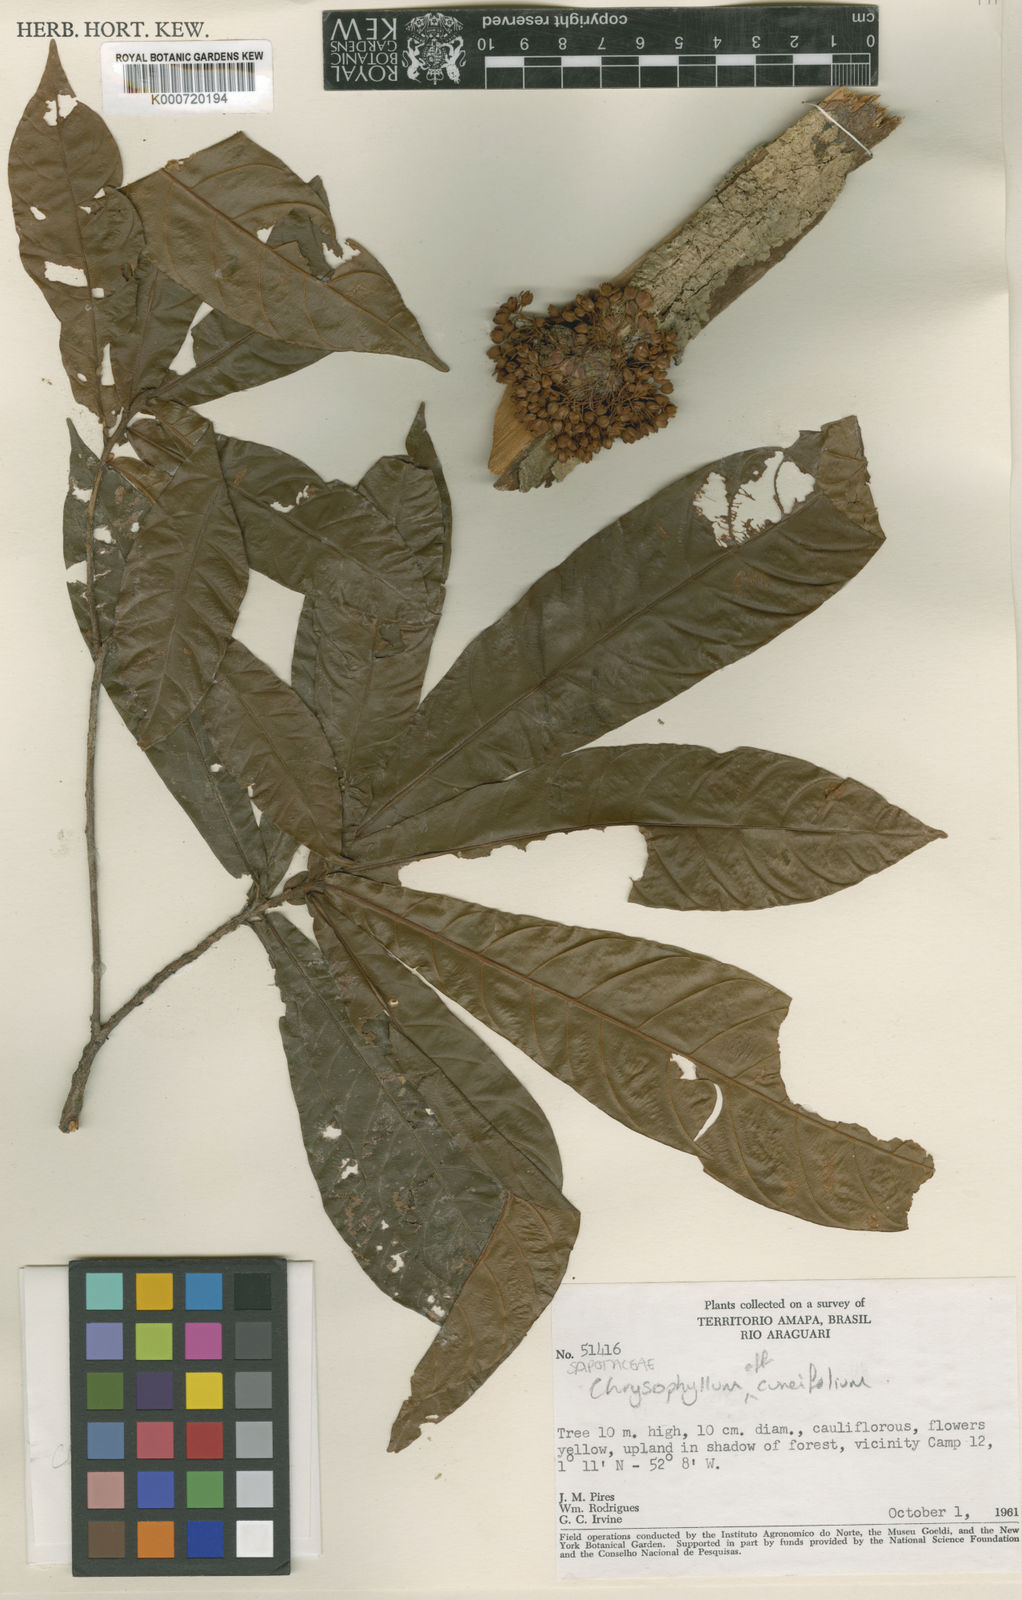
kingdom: Plantae
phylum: Tracheophyta
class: Magnoliopsida
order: Ericales
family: Sapotaceae
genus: Chrysophyllum
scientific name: Chrysophyllum cuneifolium
